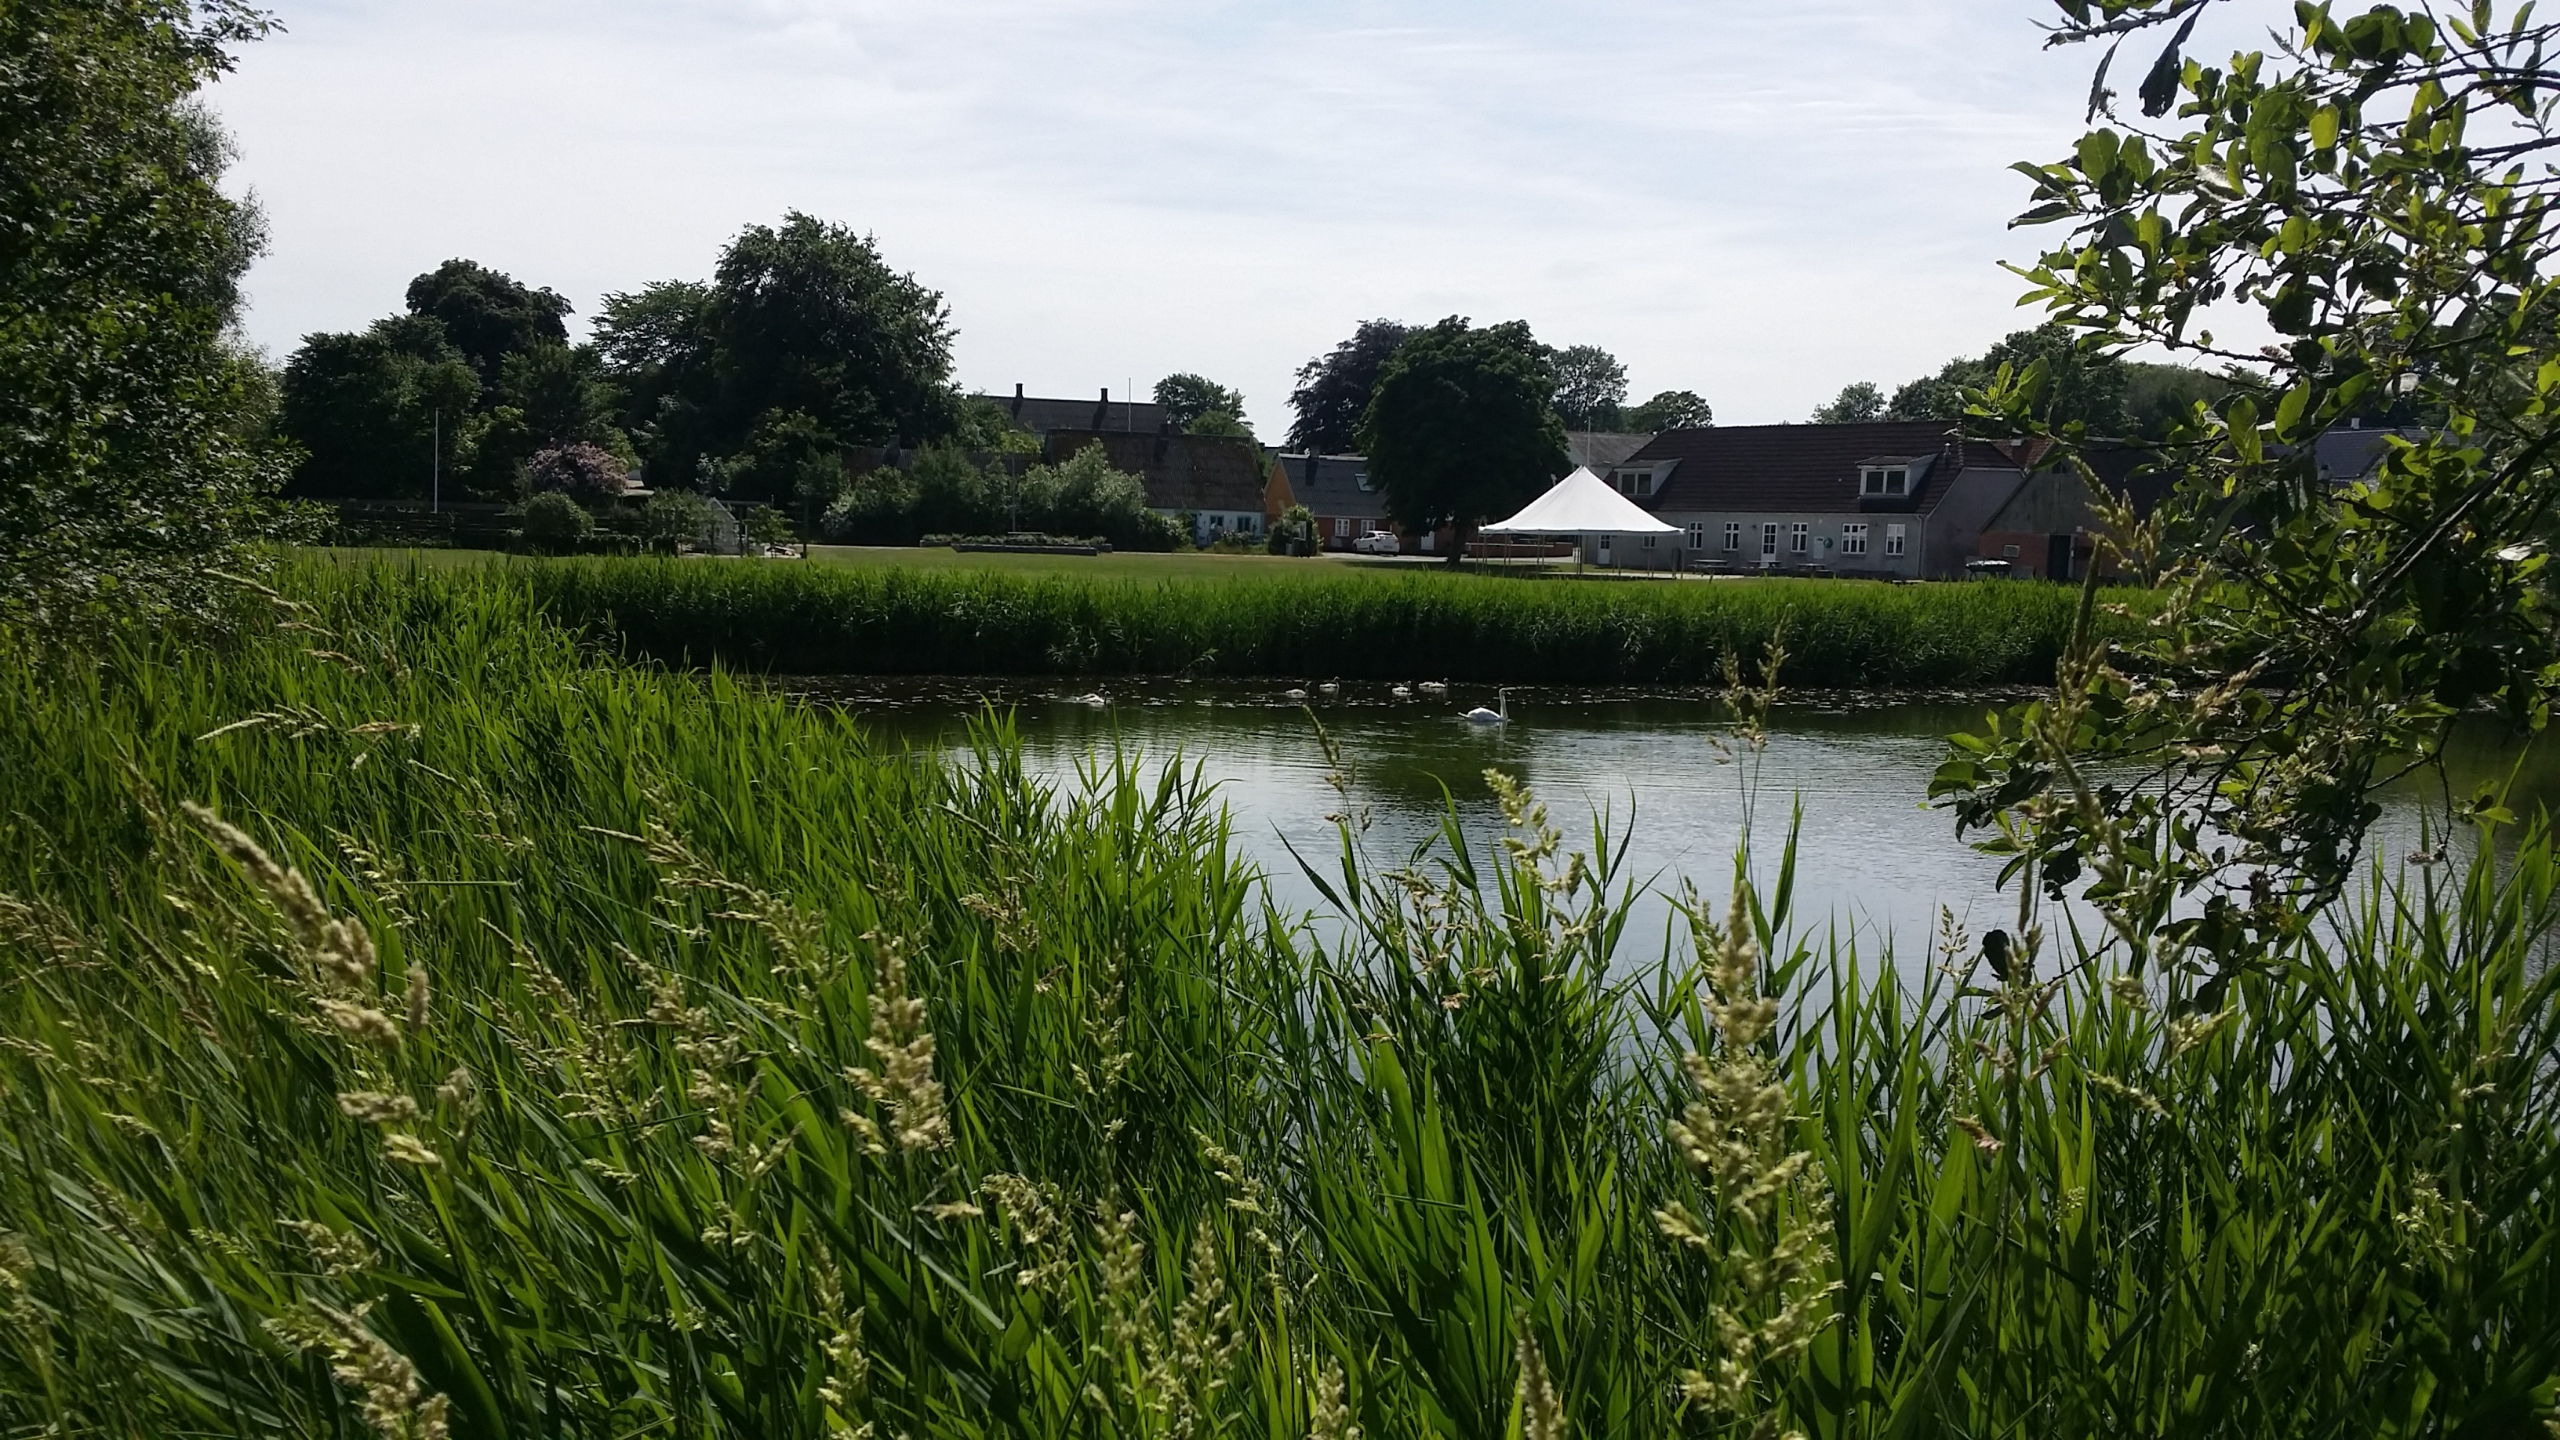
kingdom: Animalia
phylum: Chordata
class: Aves
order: Anseriformes
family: Anatidae
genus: Cygnus
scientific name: Cygnus olor
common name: Knopsvane
